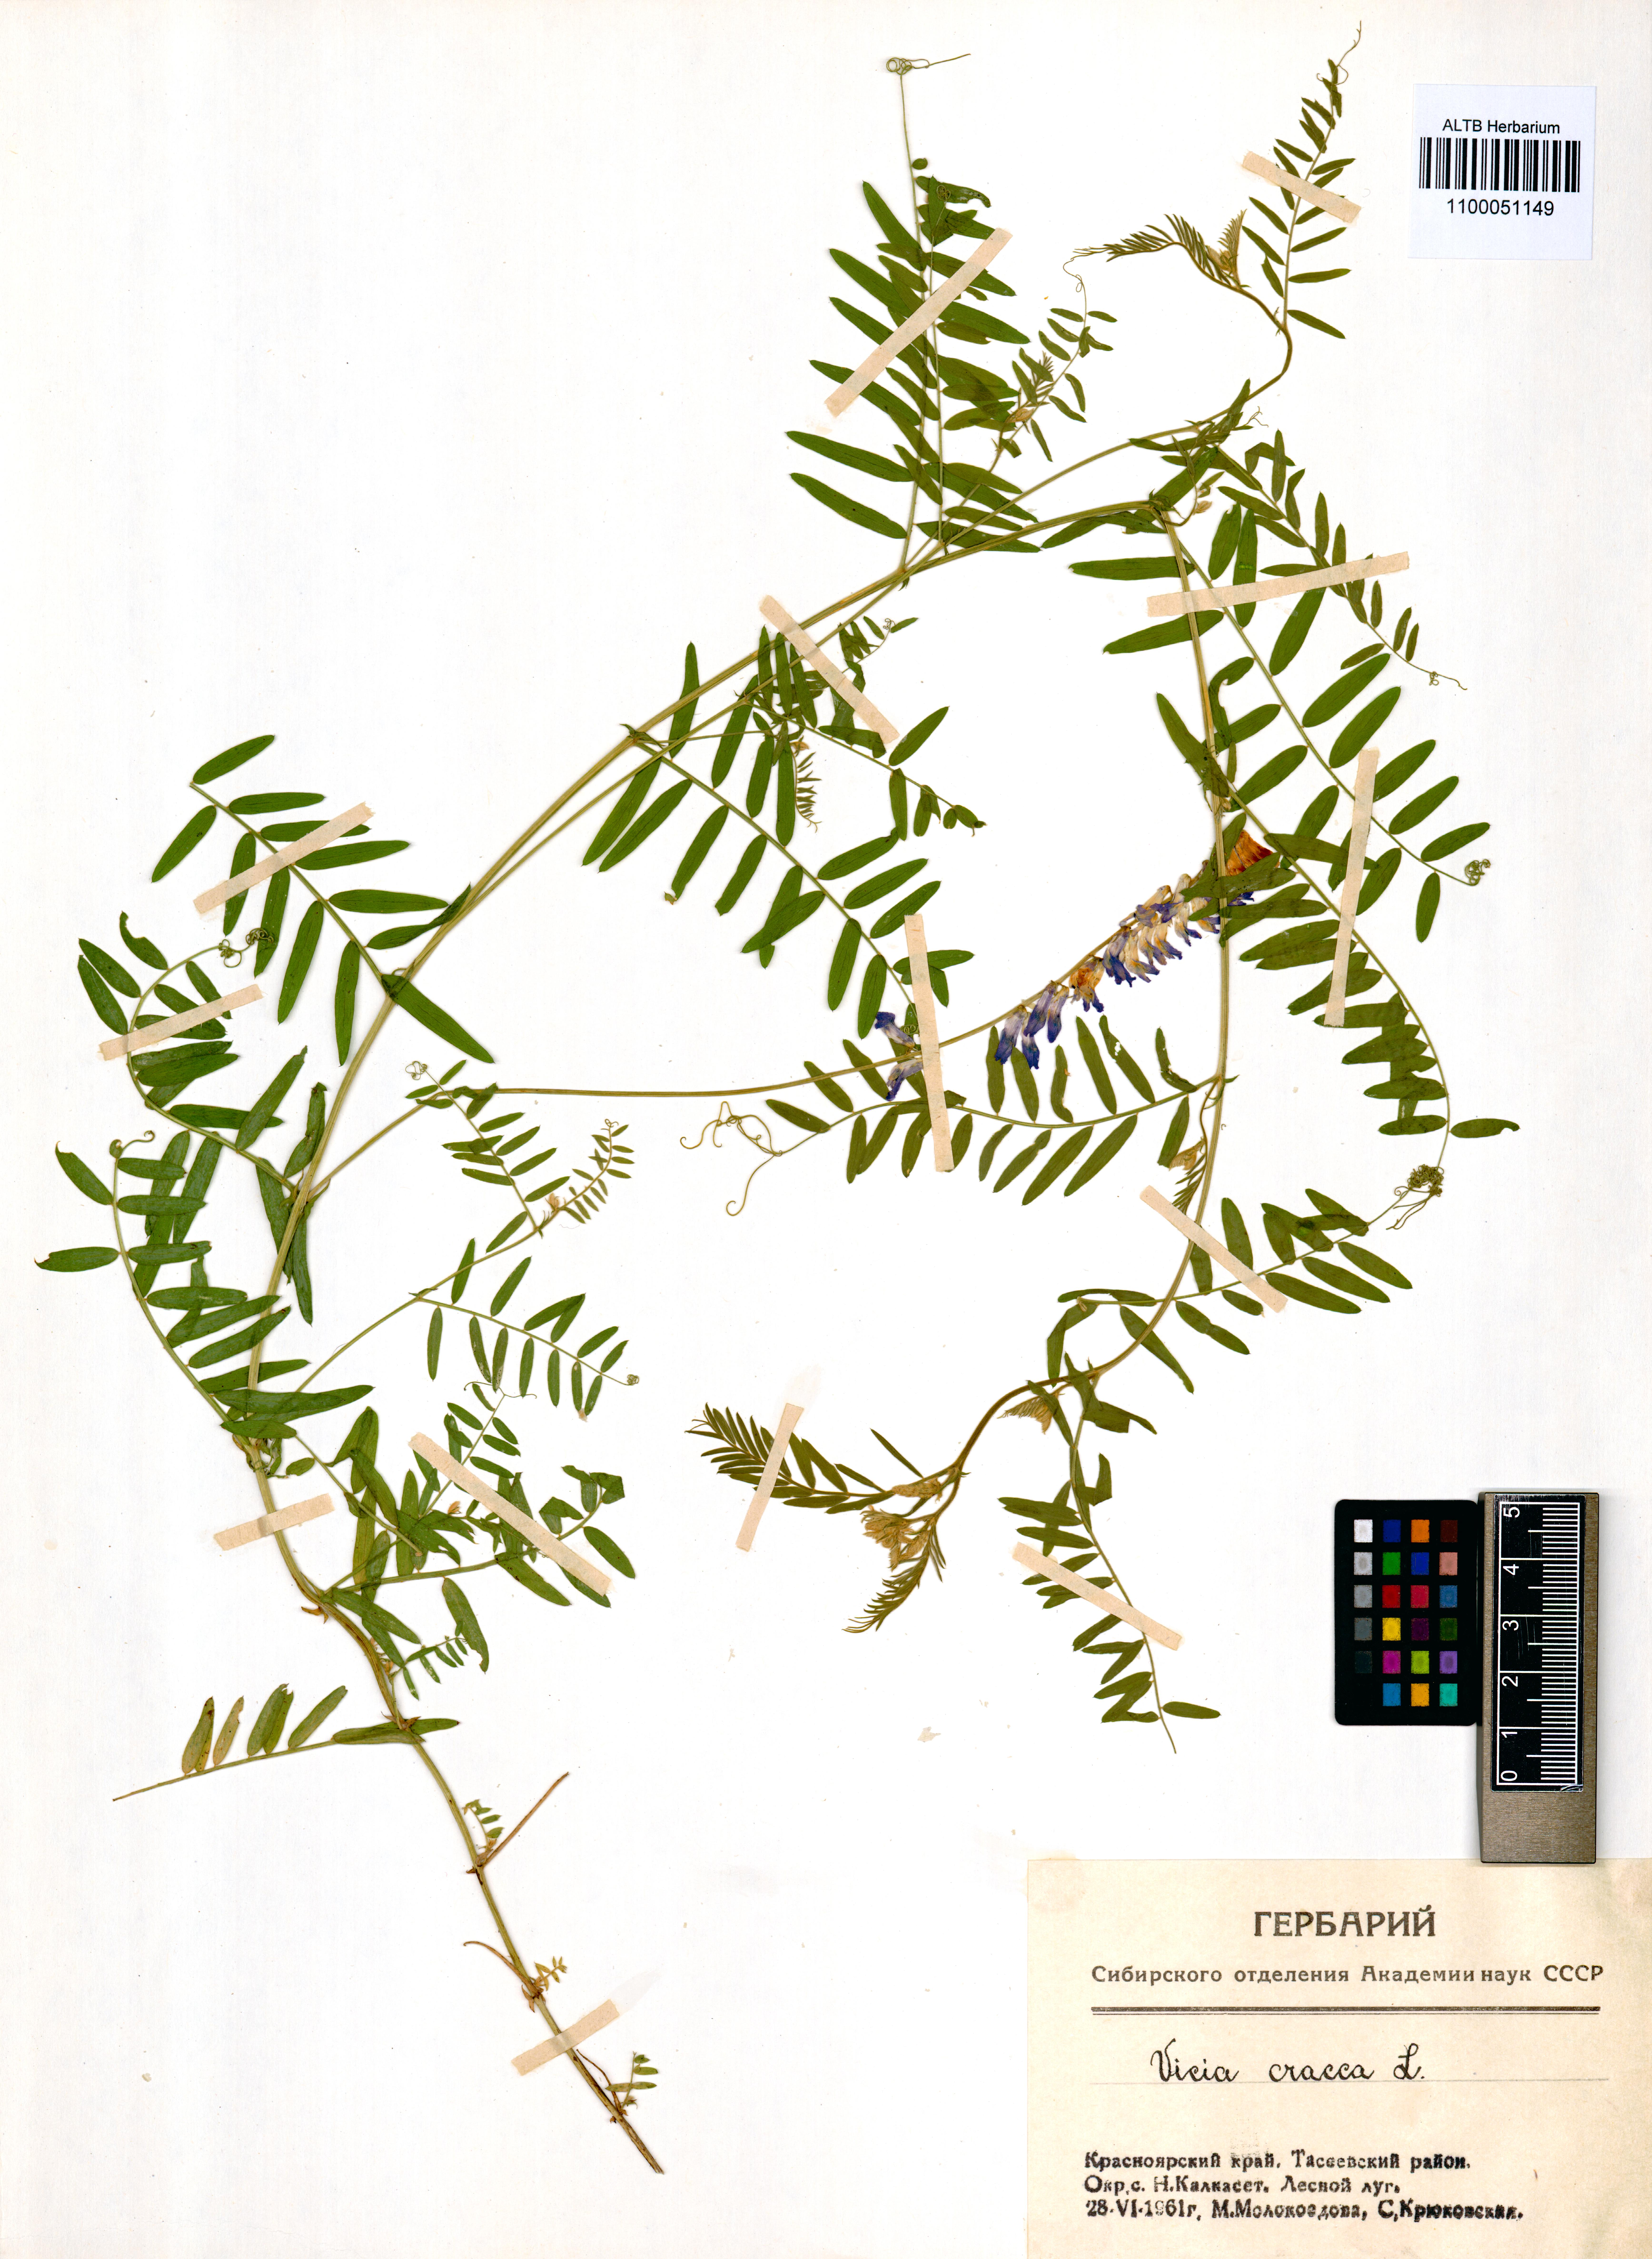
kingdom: Plantae
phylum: Tracheophyta
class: Magnoliopsida
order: Fabales
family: Fabaceae
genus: Vicia
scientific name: Vicia cracca
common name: Bird vetch
